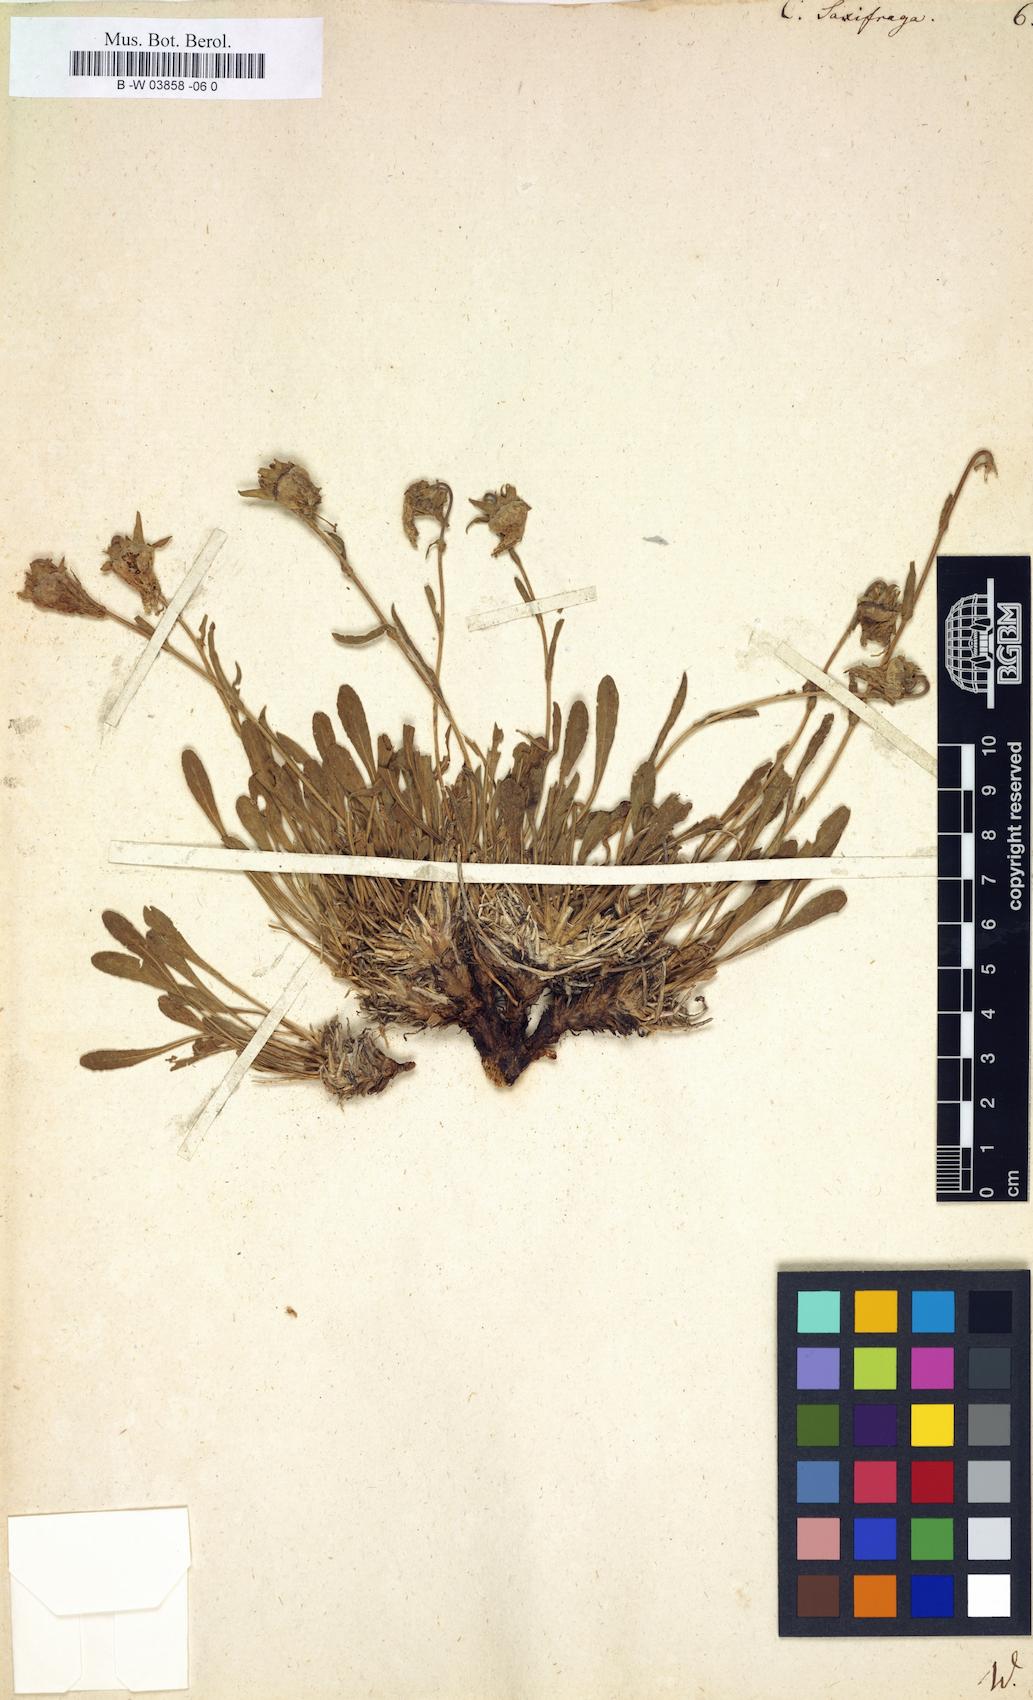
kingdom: Plantae
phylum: Tracheophyta
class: Magnoliopsida
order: Asterales
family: Campanulaceae
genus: Campanula
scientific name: Campanula saxifraga
